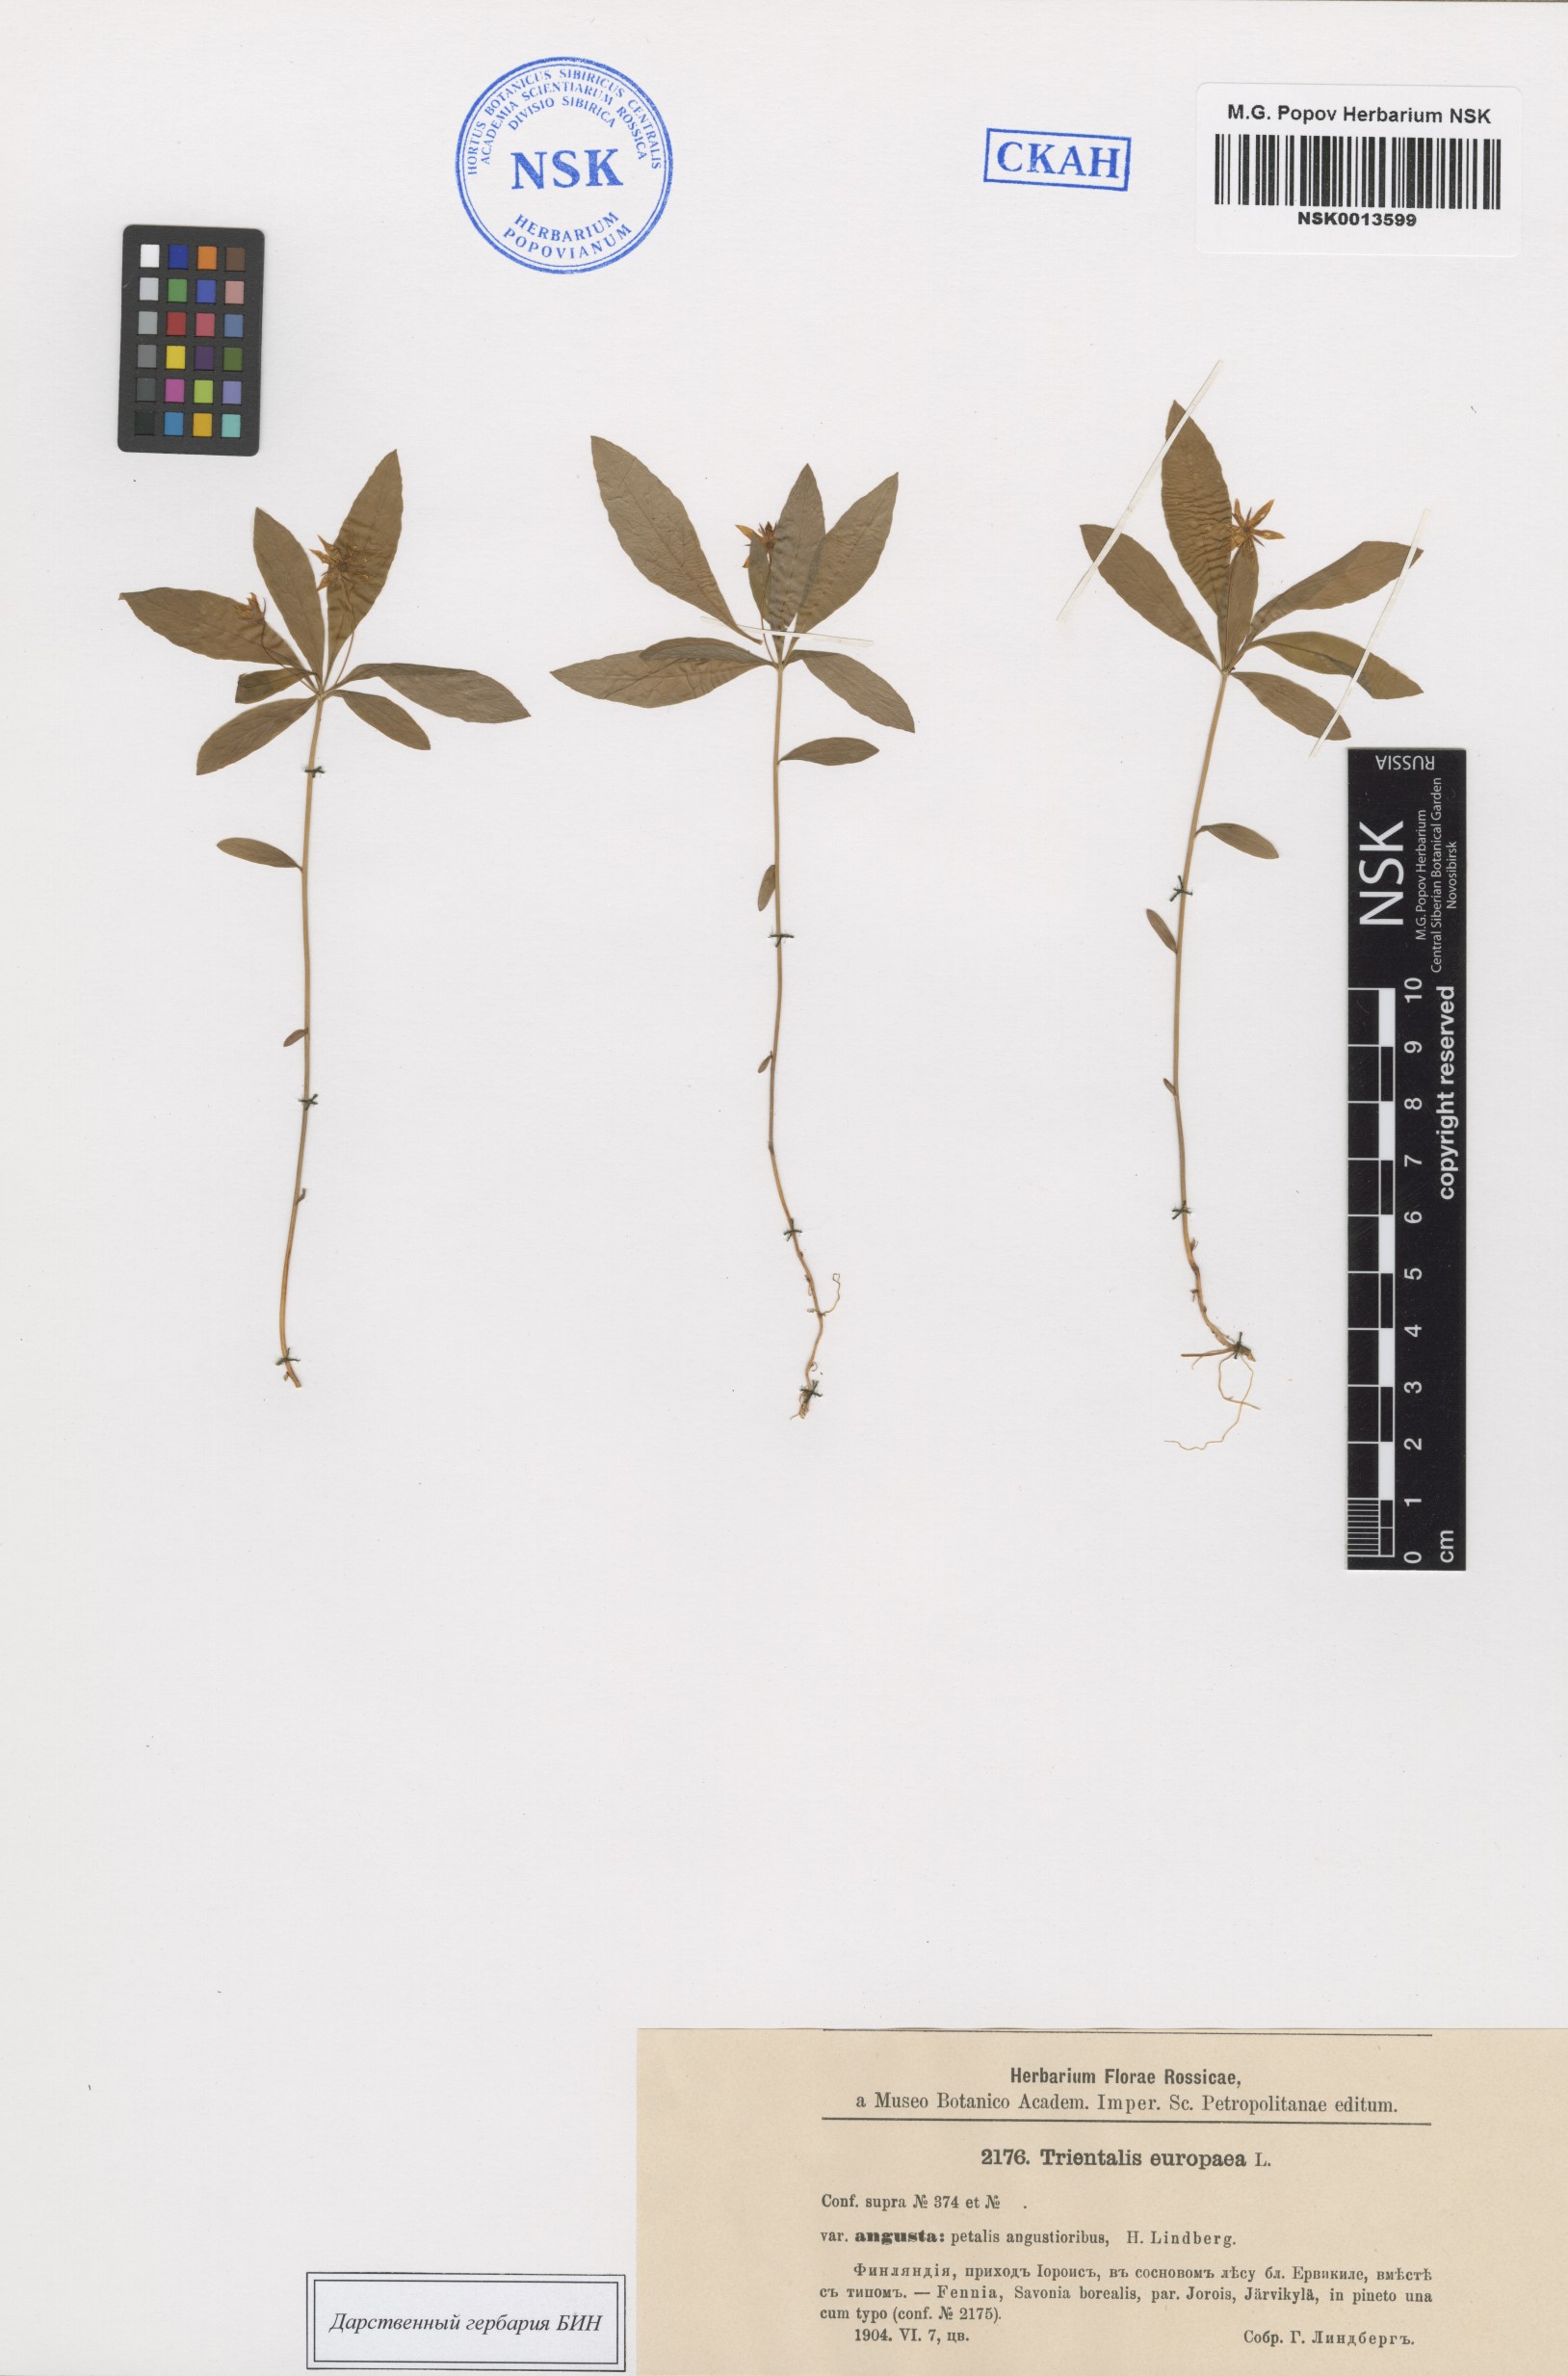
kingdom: Plantae
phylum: Tracheophyta
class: Magnoliopsida
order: Ericales
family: Primulaceae
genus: Lysimachia
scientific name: Lysimachia europaea
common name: Arctic starflower
